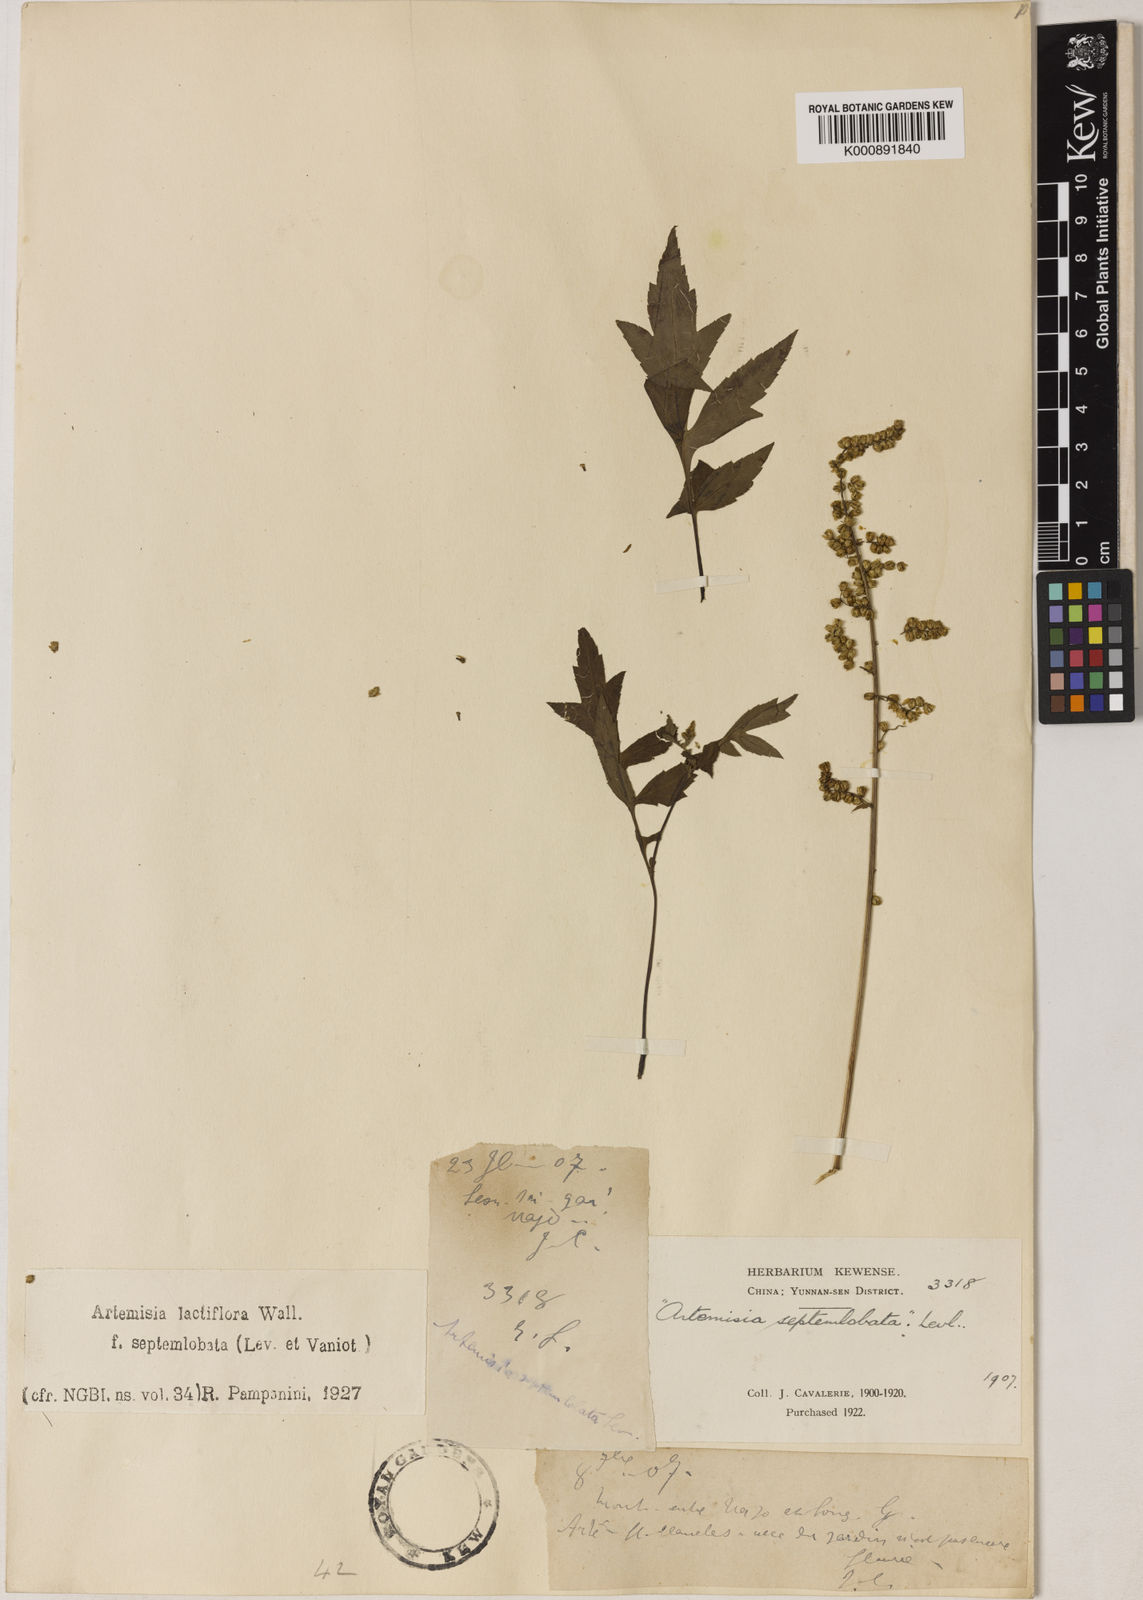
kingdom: Plantae
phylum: Tracheophyta
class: Magnoliopsida
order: Asterales
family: Asteraceae
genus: Artemisia
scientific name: Artemisia lactiflora
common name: White mugwort
